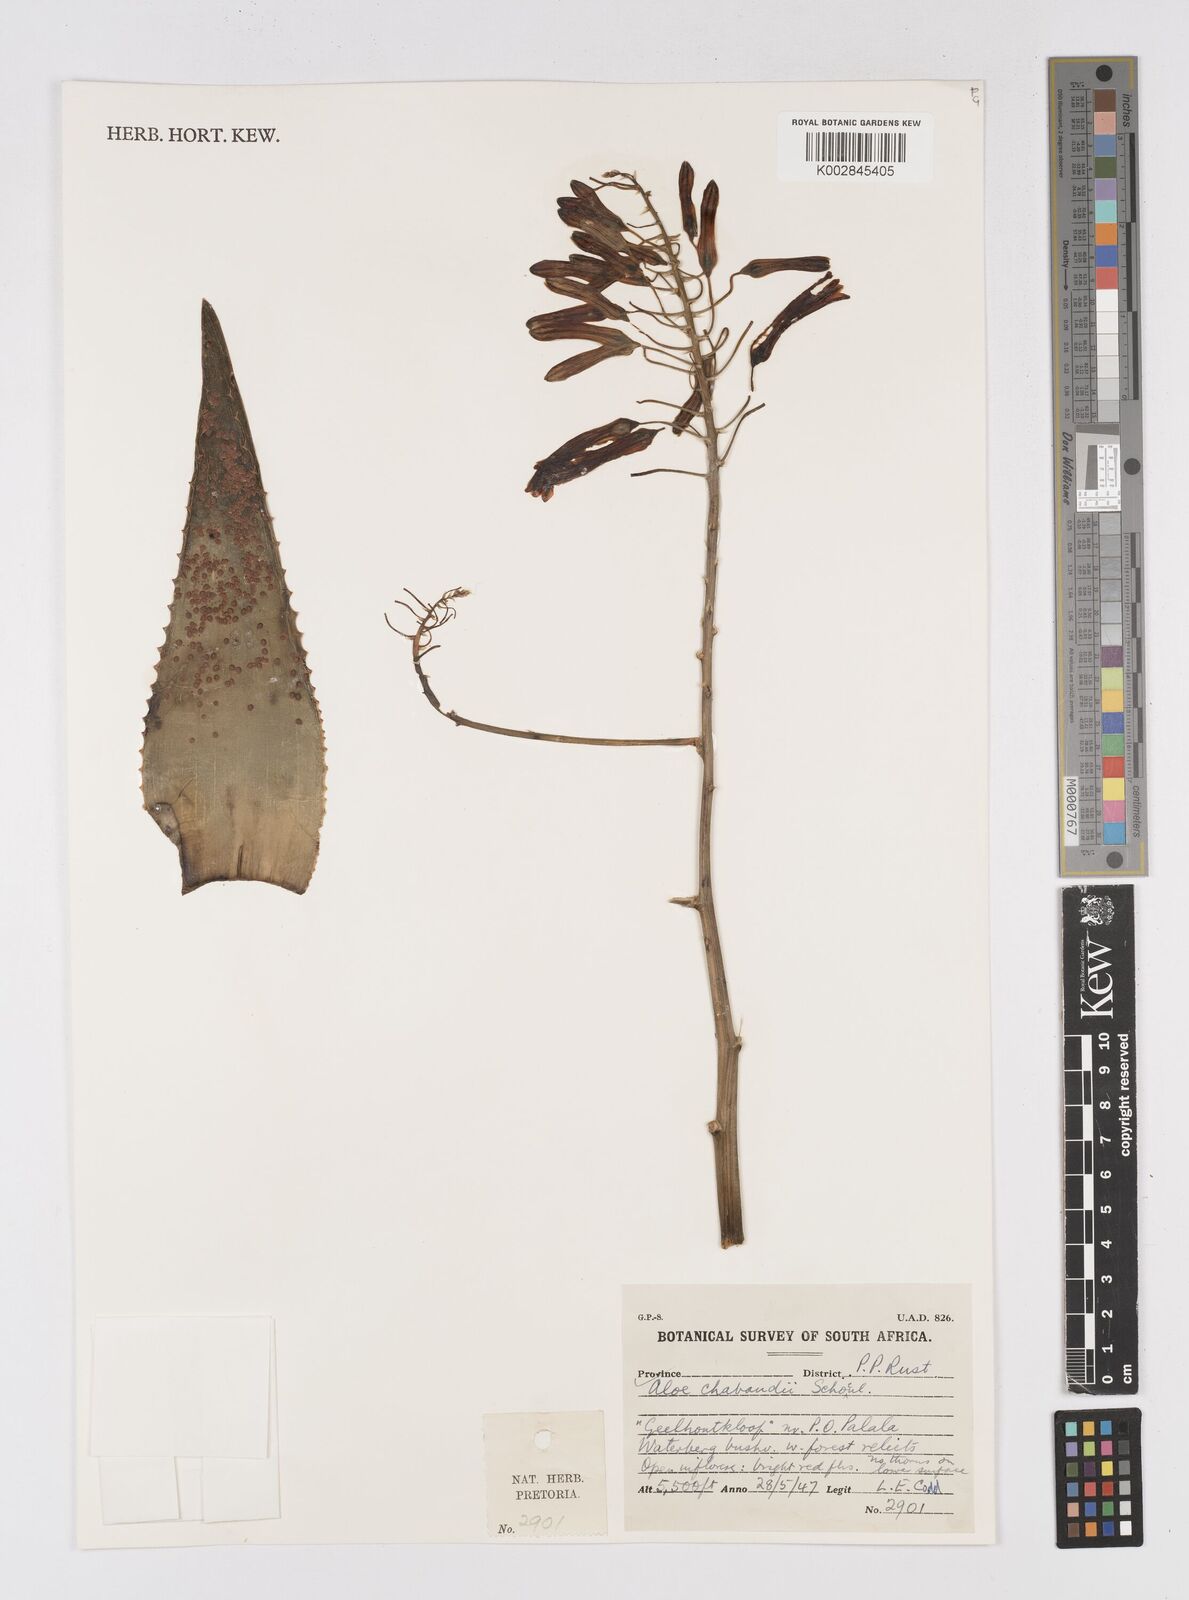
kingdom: Plantae
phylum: Tracheophyta
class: Liliopsida
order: Asparagales
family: Asphodelaceae
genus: Aloe
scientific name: Aloe chabaudii
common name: Chabaud's aloe
